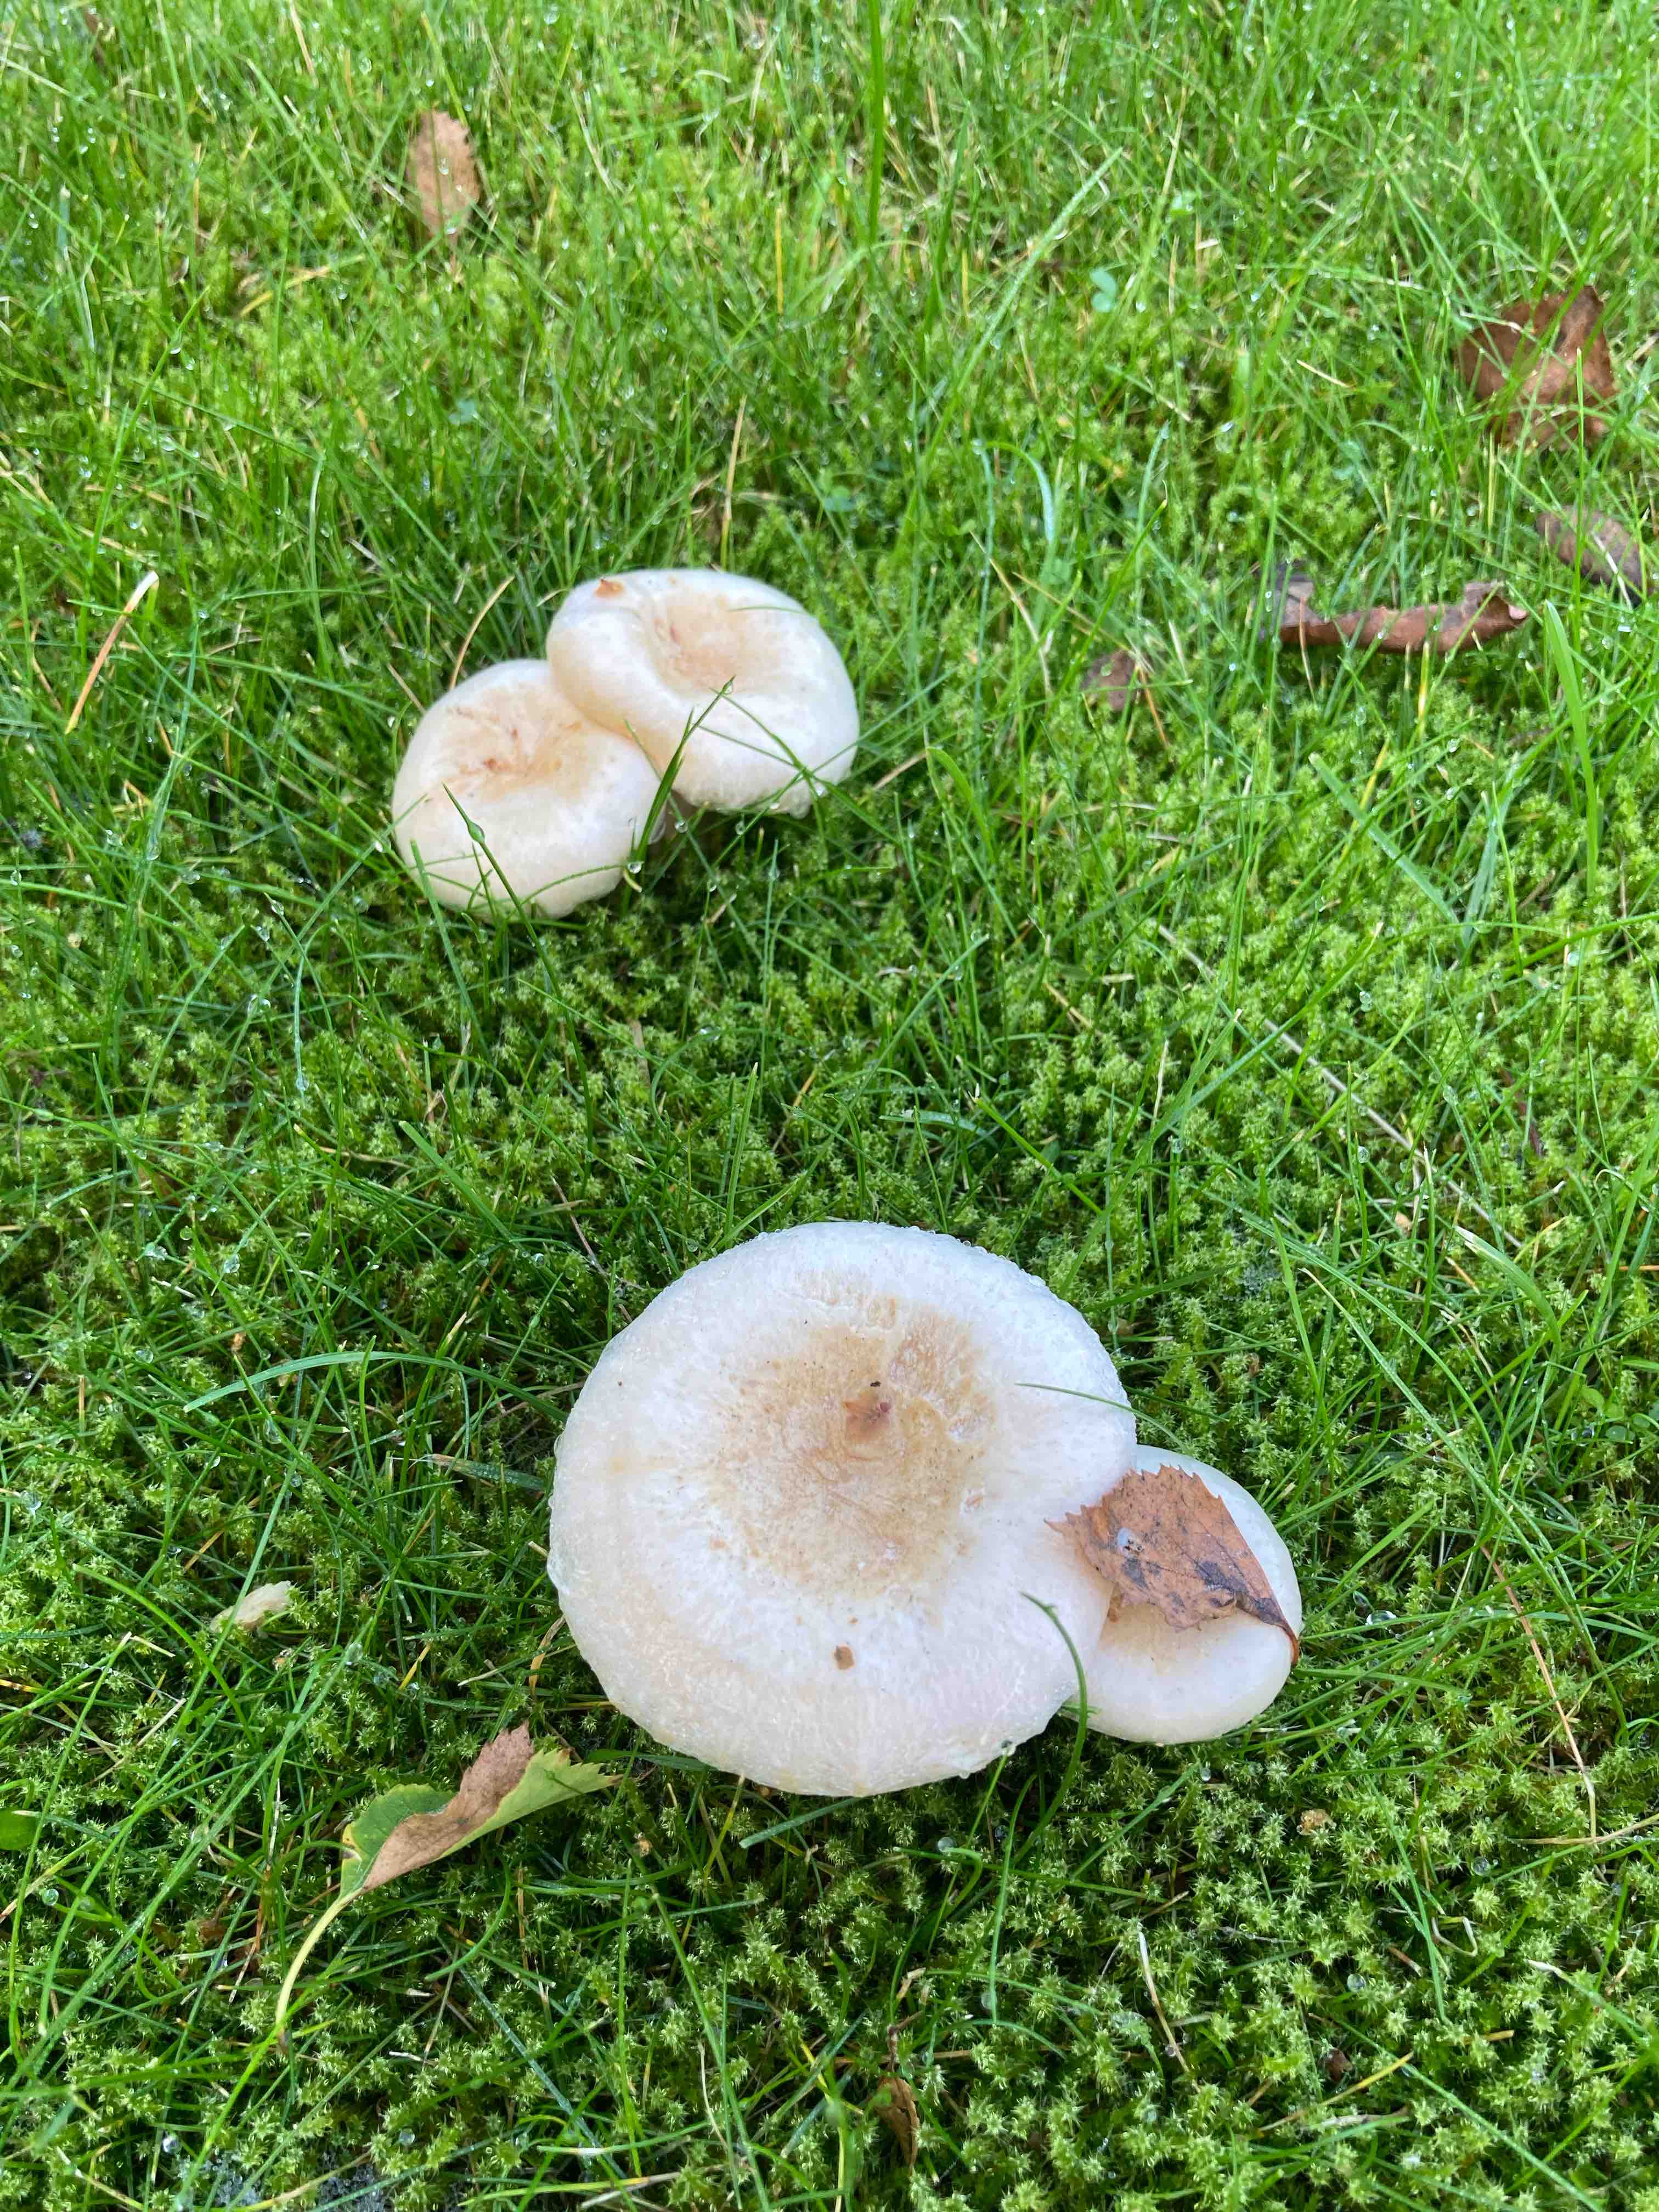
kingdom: Fungi
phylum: Basidiomycota
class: Agaricomycetes
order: Russulales
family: Russulaceae
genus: Lactarius
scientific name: Lactarius pubescens
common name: dunet mælkehat
